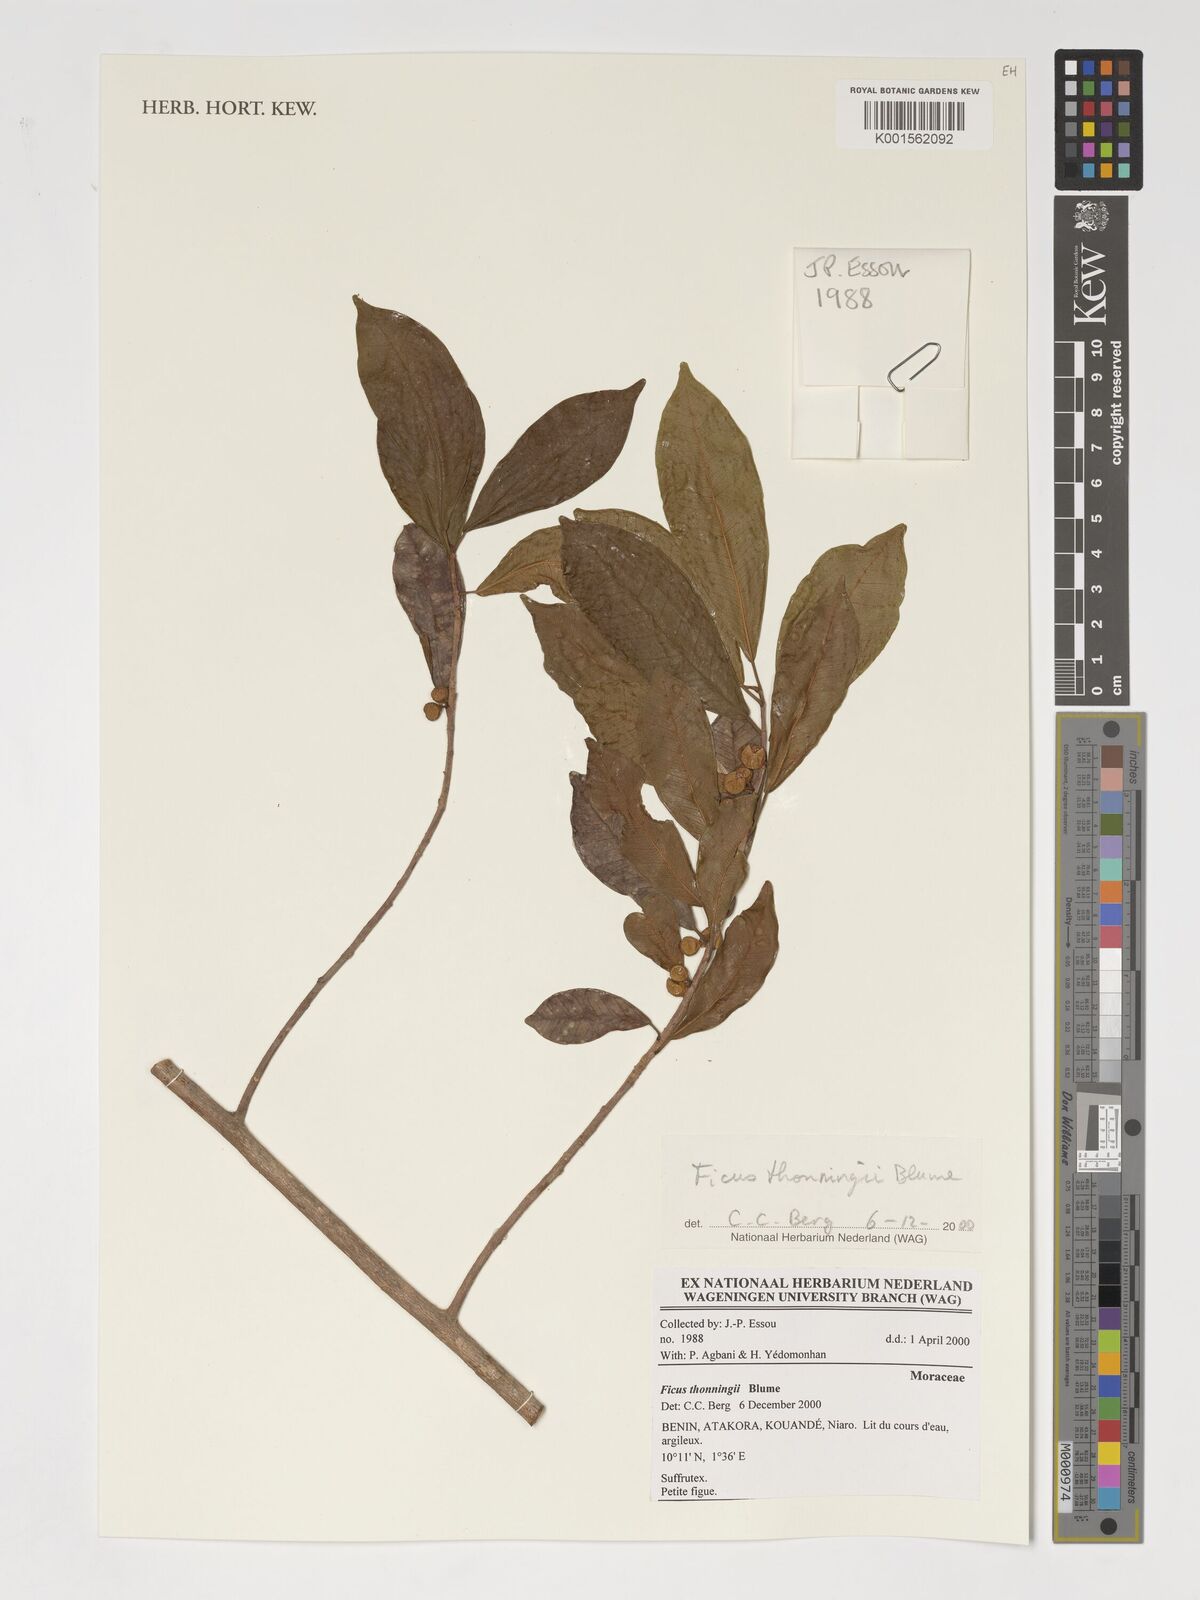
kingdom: Plantae
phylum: Tracheophyta
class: Magnoliopsida
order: Rosales
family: Moraceae
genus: Ficus
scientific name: Ficus thonningii
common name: Fig
